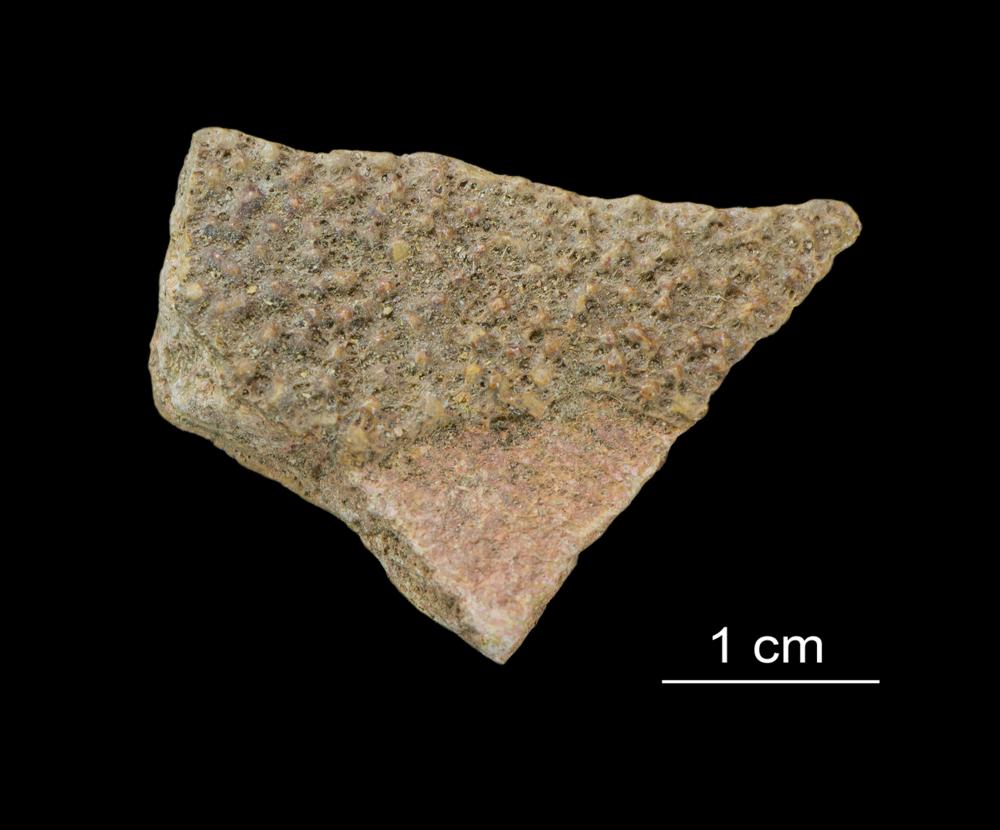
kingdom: Animalia
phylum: Chordata
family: Asterolepididae
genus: Asterolepis
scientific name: Asterolepis ornata
